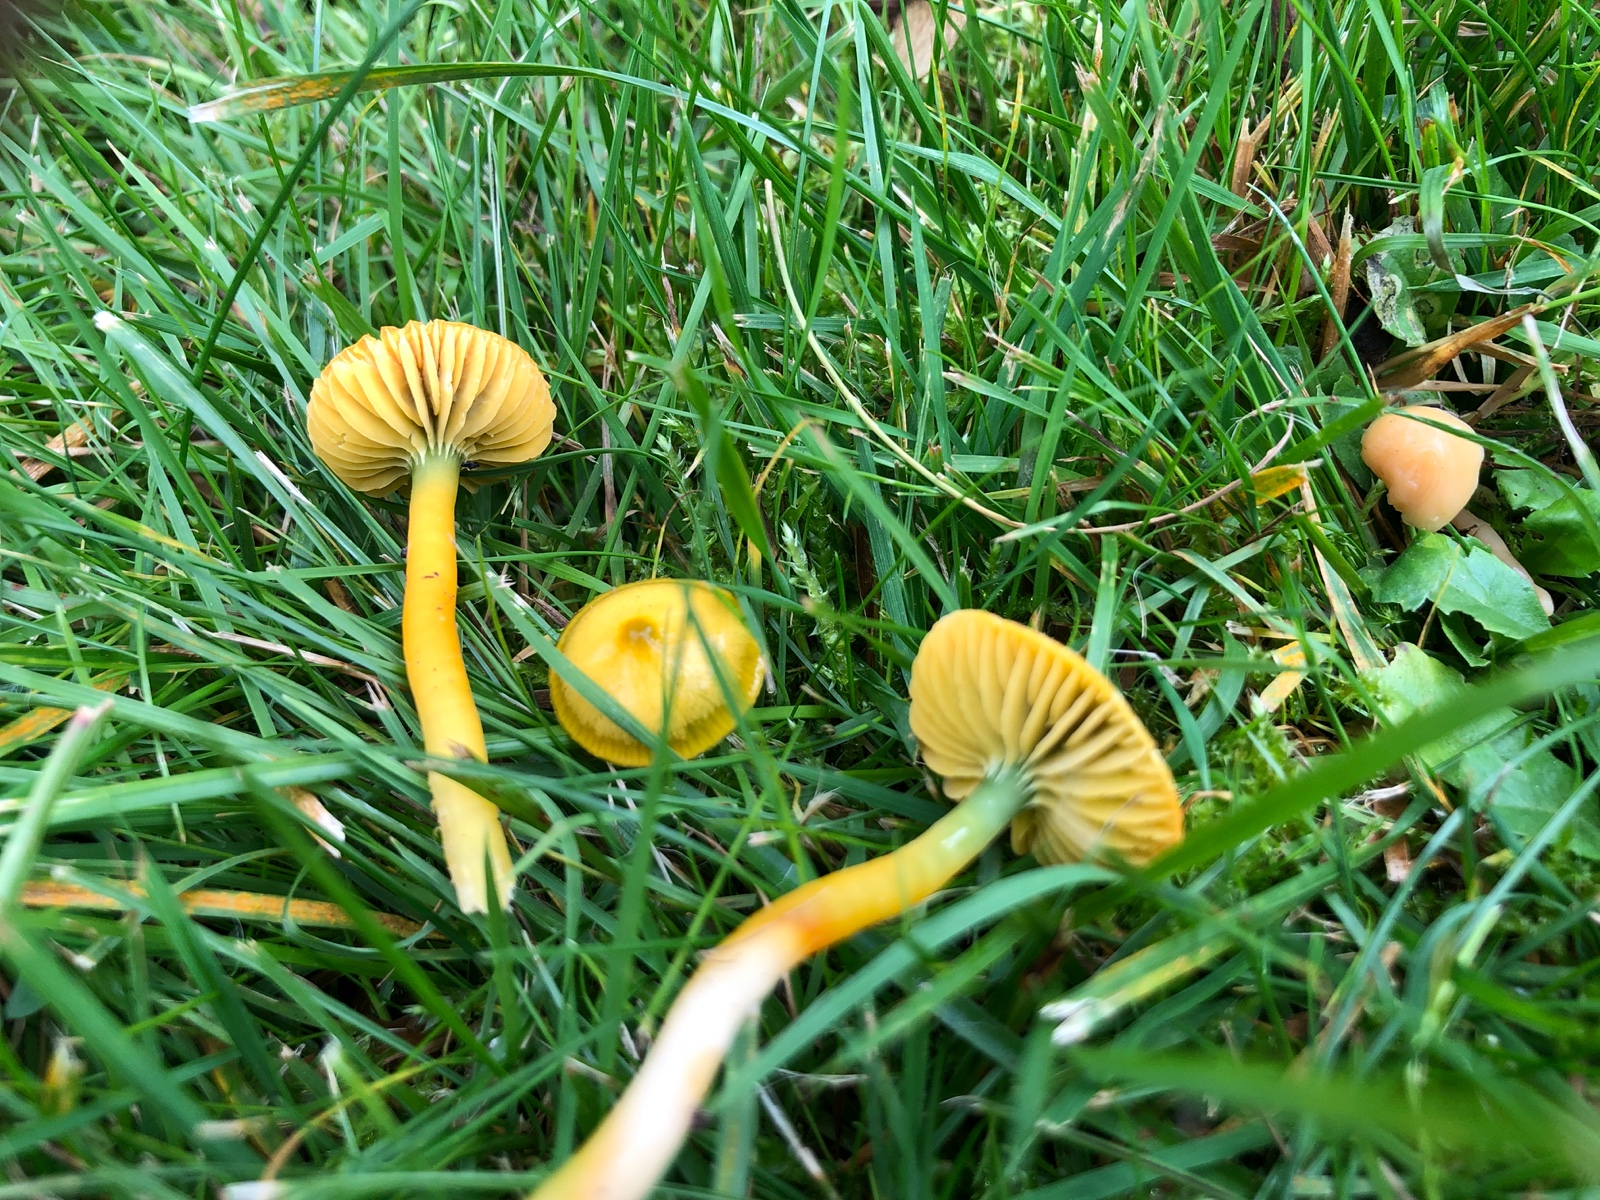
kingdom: Fungi
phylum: Basidiomycota
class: Agaricomycetes
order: Agaricales
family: Hygrophoraceae
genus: Gliophorus
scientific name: Gliophorus psittacinus
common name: papegøje-vokshat
